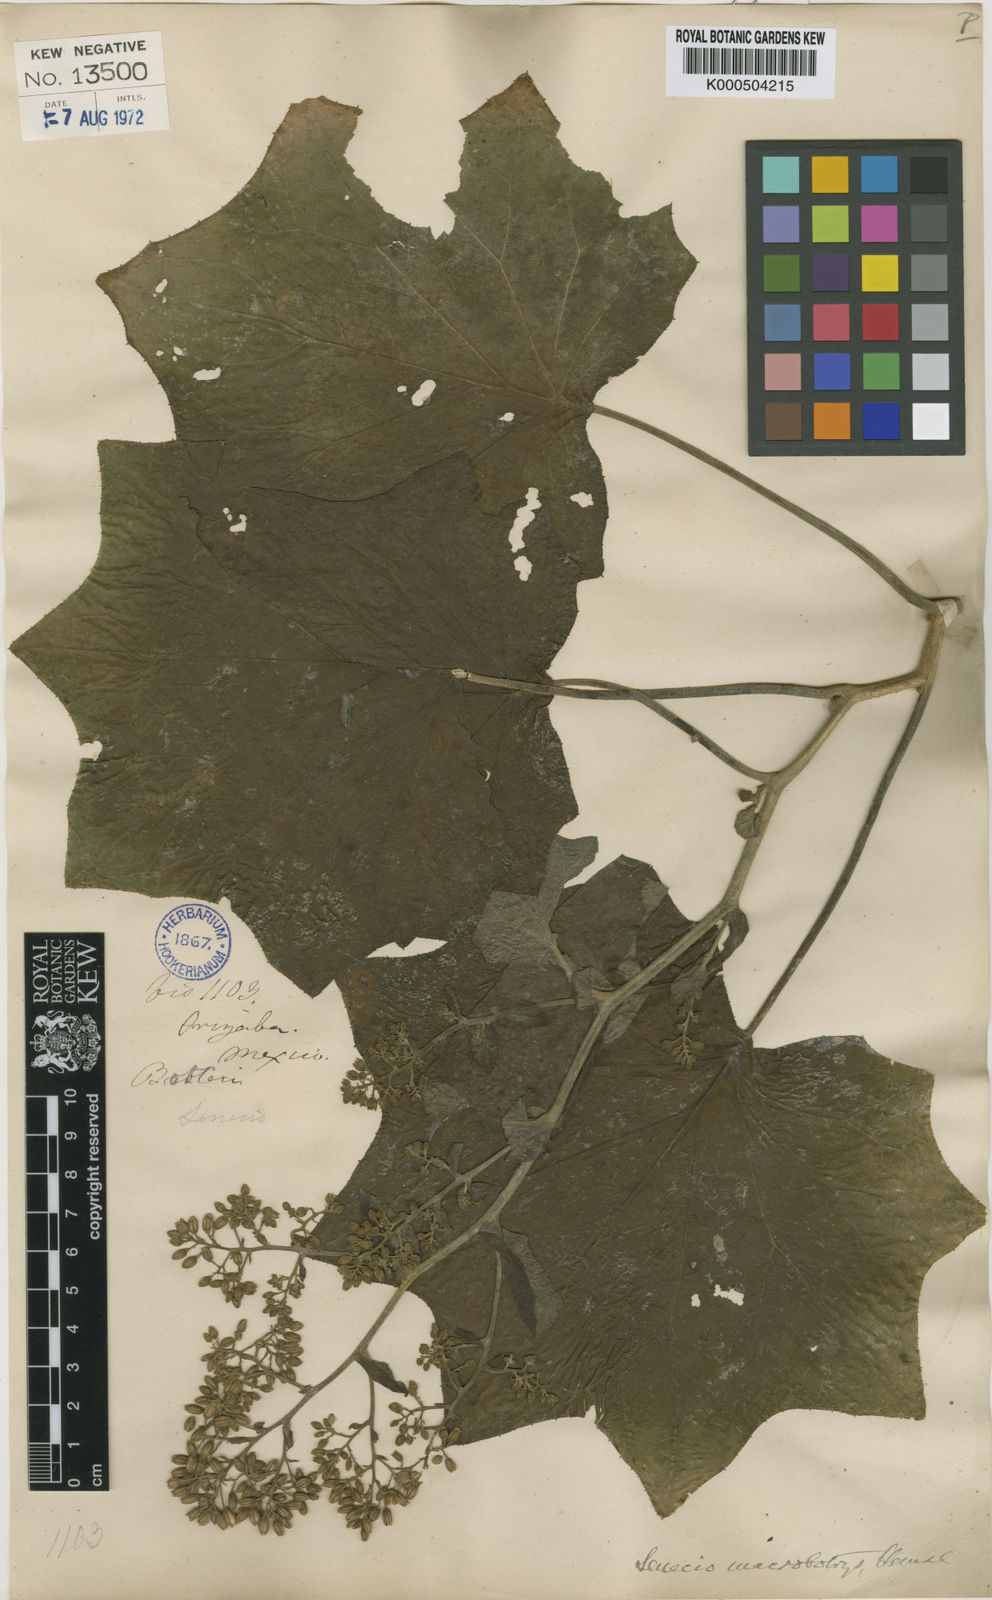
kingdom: Plantae
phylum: Tracheophyta
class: Magnoliopsida
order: Asterales
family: Asteraceae
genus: Roldana
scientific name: Roldana
